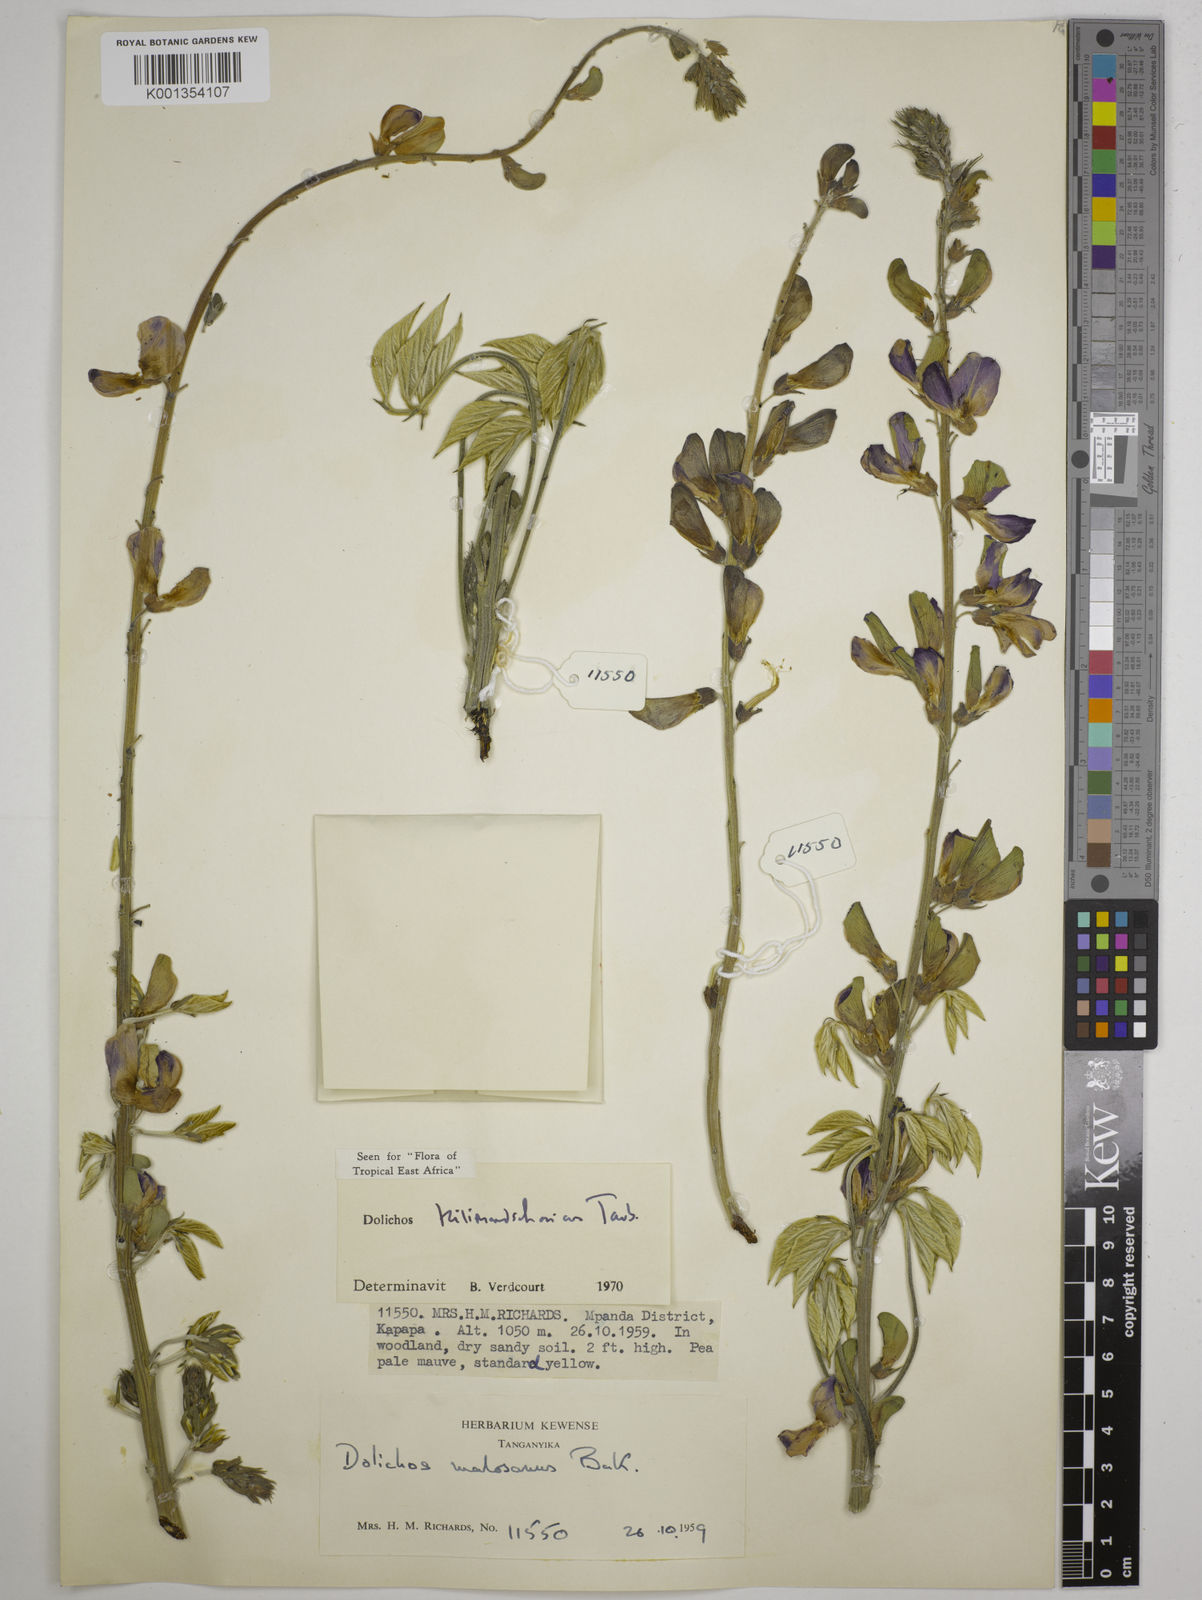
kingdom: Plantae
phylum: Tracheophyta
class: Magnoliopsida
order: Fabales
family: Fabaceae
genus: Dolichos
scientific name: Dolichos kilimandscharicus
